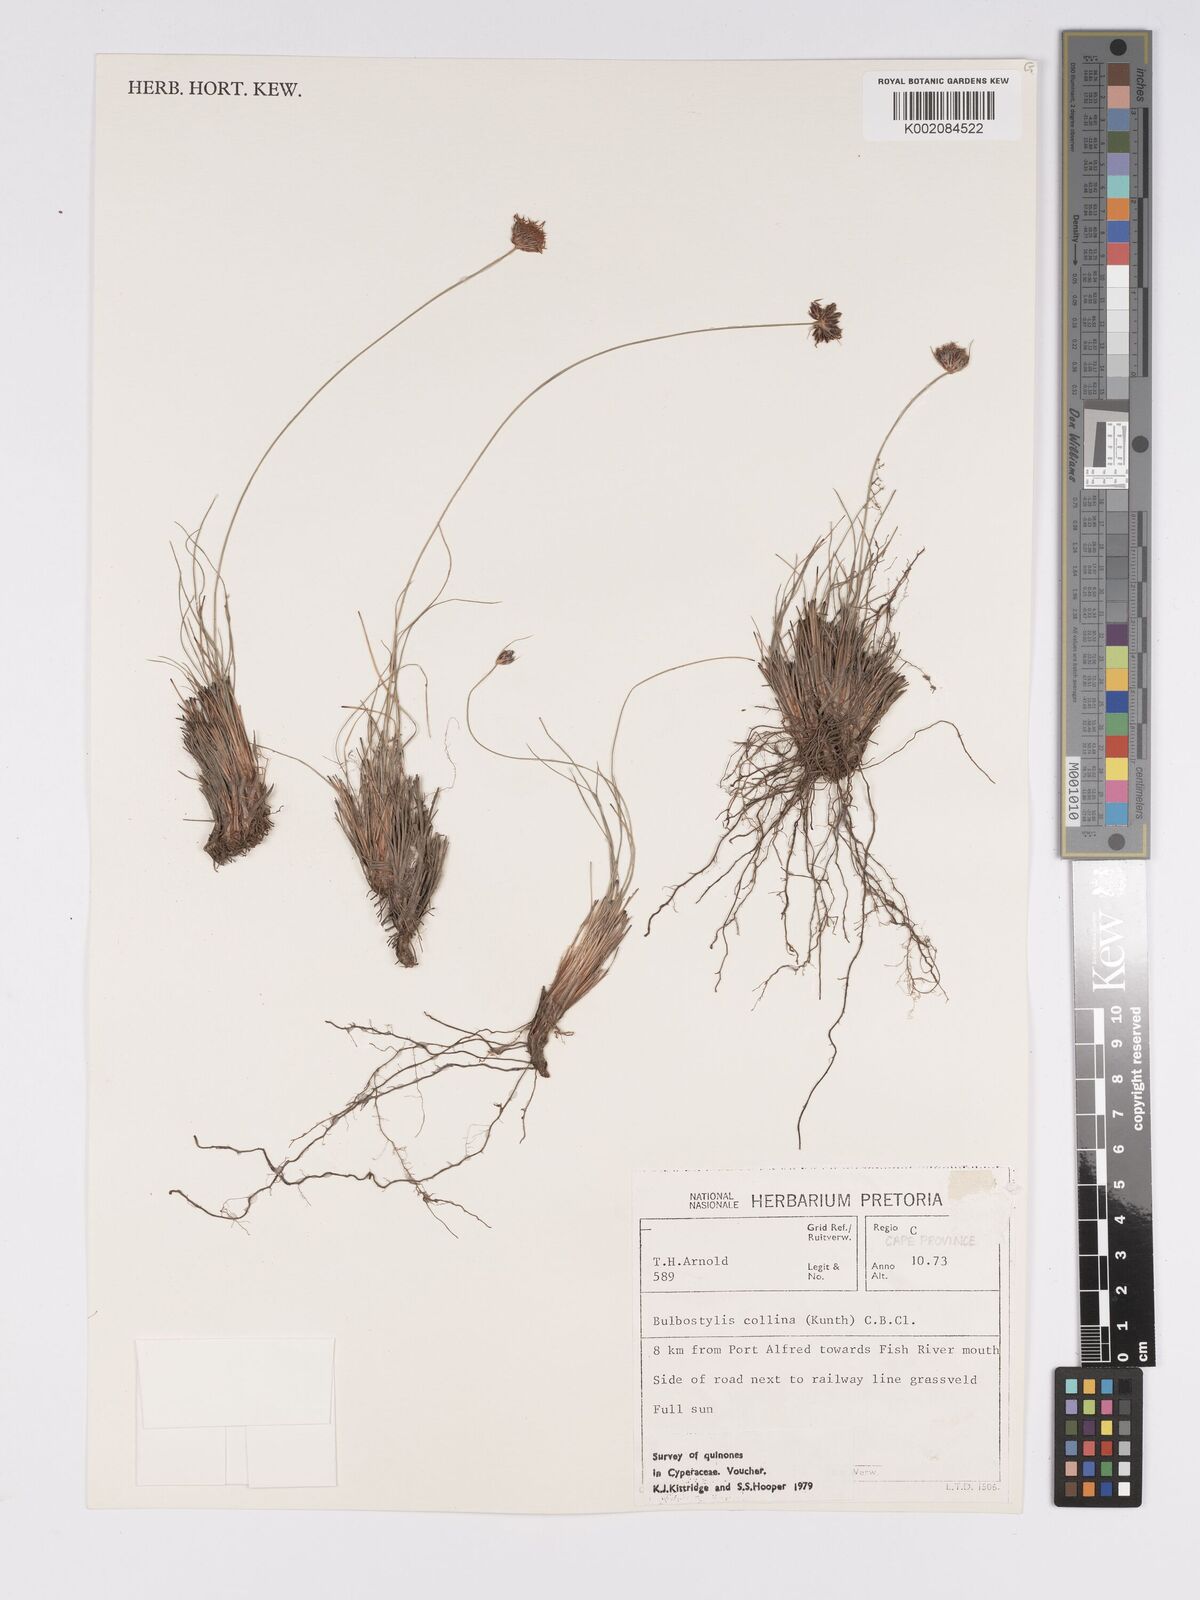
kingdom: Plantae
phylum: Tracheophyta
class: Liliopsida
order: Poales
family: Cyperaceae
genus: Bulbostylis
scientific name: Bulbostylis contexta
